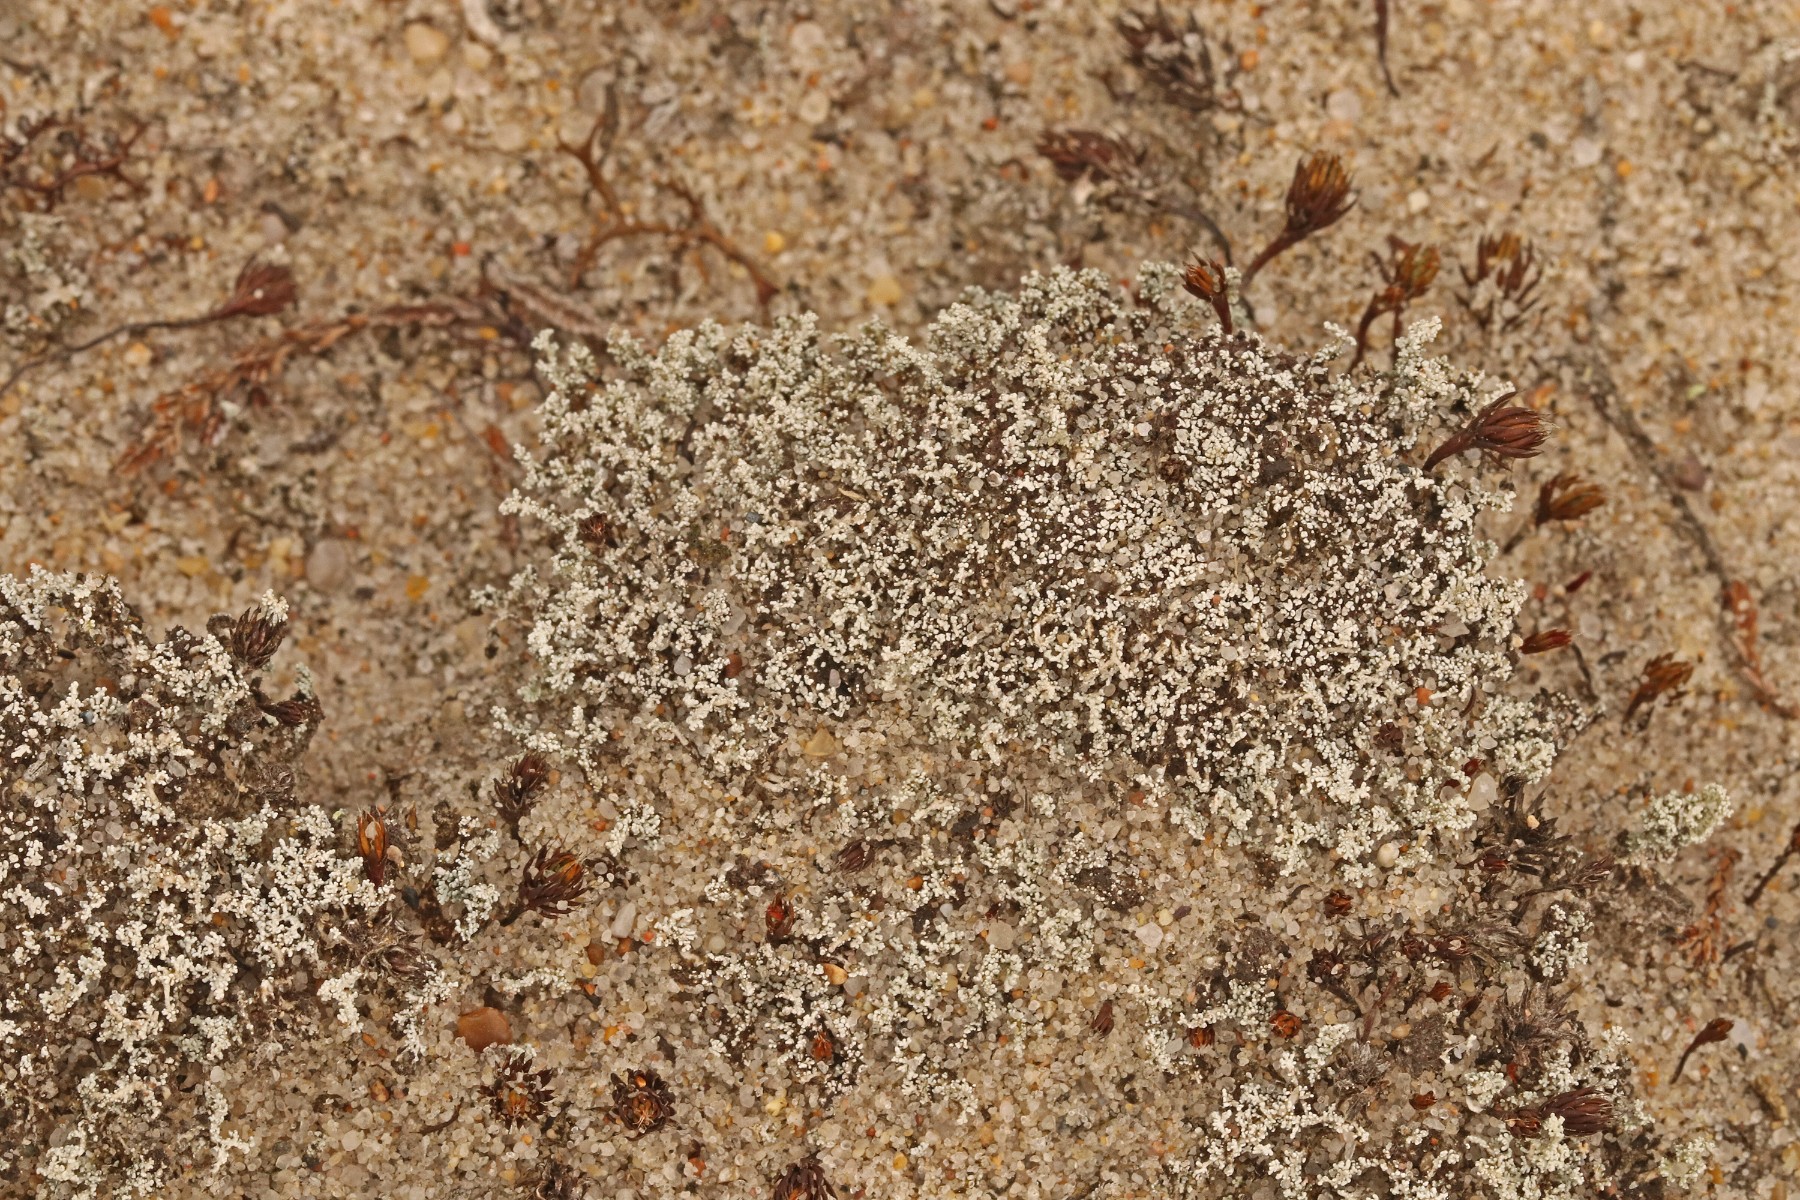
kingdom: Fungi
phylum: Ascomycota
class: Lecanoromycetes
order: Lecanorales
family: Stereocaulaceae
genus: Stereocaulon
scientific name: Stereocaulon condensatum
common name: lav korallav
